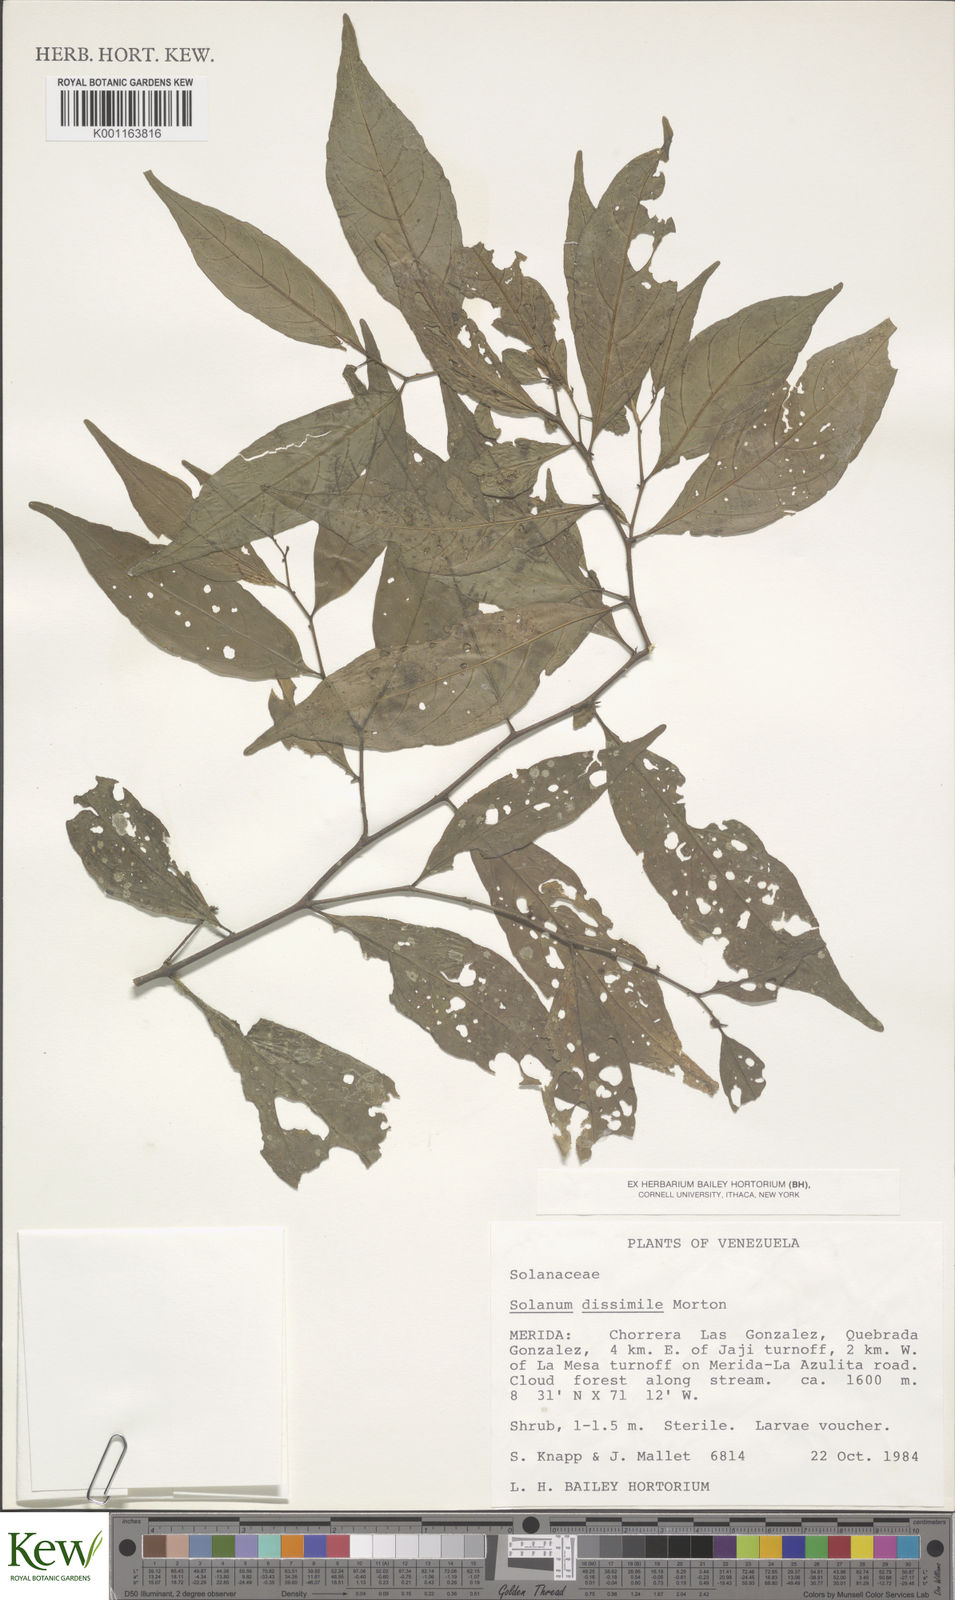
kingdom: Plantae
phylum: Tracheophyta
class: Magnoliopsida
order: Solanales
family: Solanaceae
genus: Solanum
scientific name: Solanum dissimile
